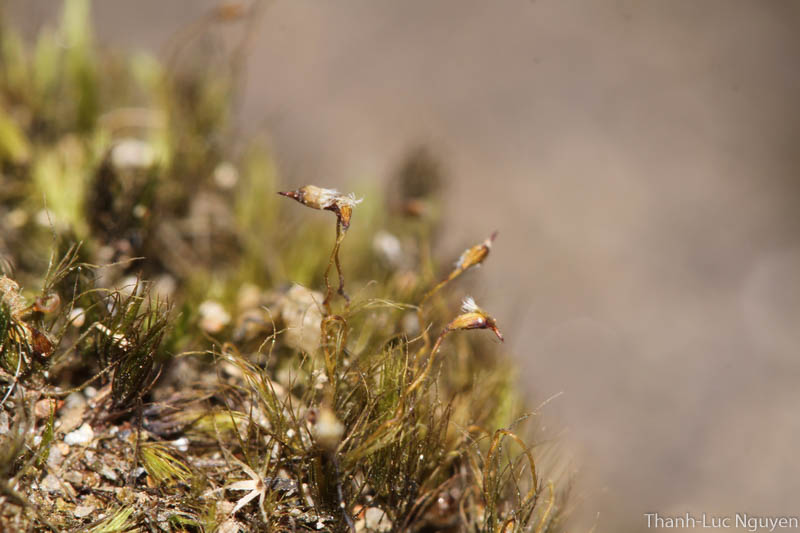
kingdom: Plantae
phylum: Bryophyta
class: Bryopsida
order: Dicranales
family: Leucobryaceae
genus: Campylopus
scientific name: Campylopus
